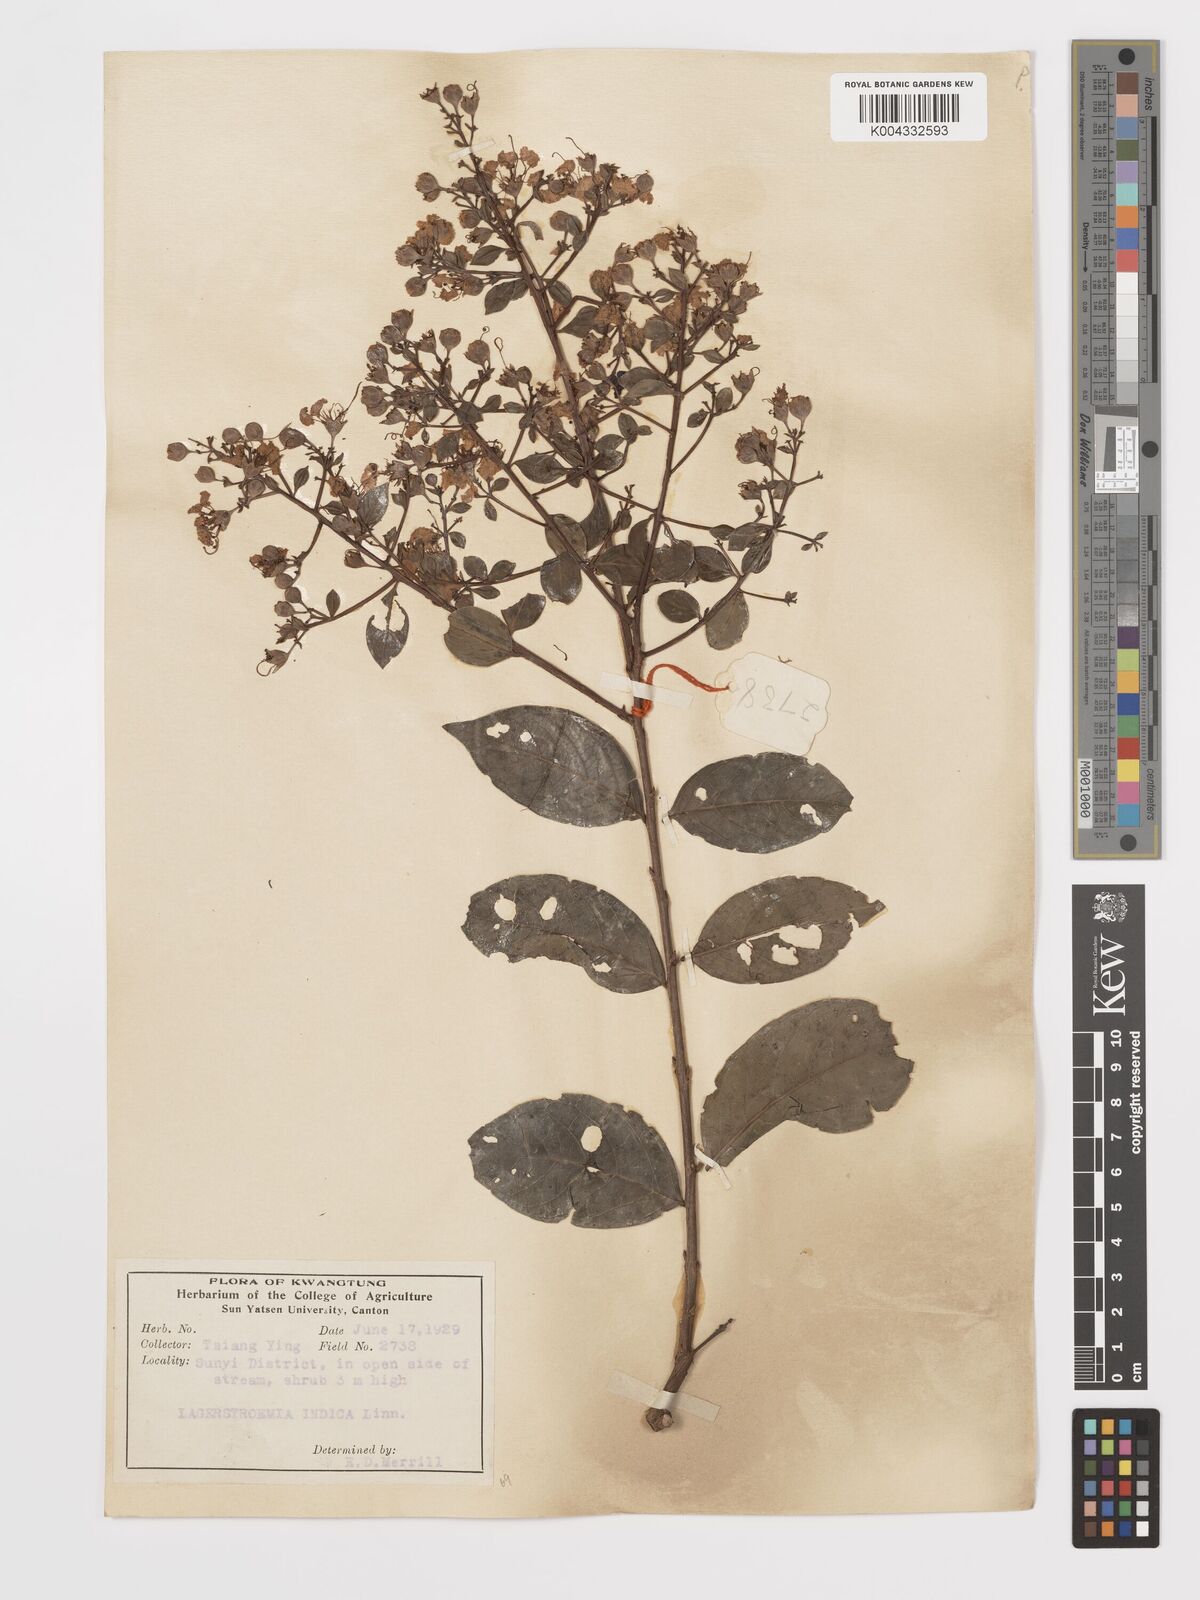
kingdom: Plantae
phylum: Tracheophyta
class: Magnoliopsida
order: Myrtales
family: Lythraceae
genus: Lagerstroemia
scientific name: Lagerstroemia indica
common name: Crape-myrtle
